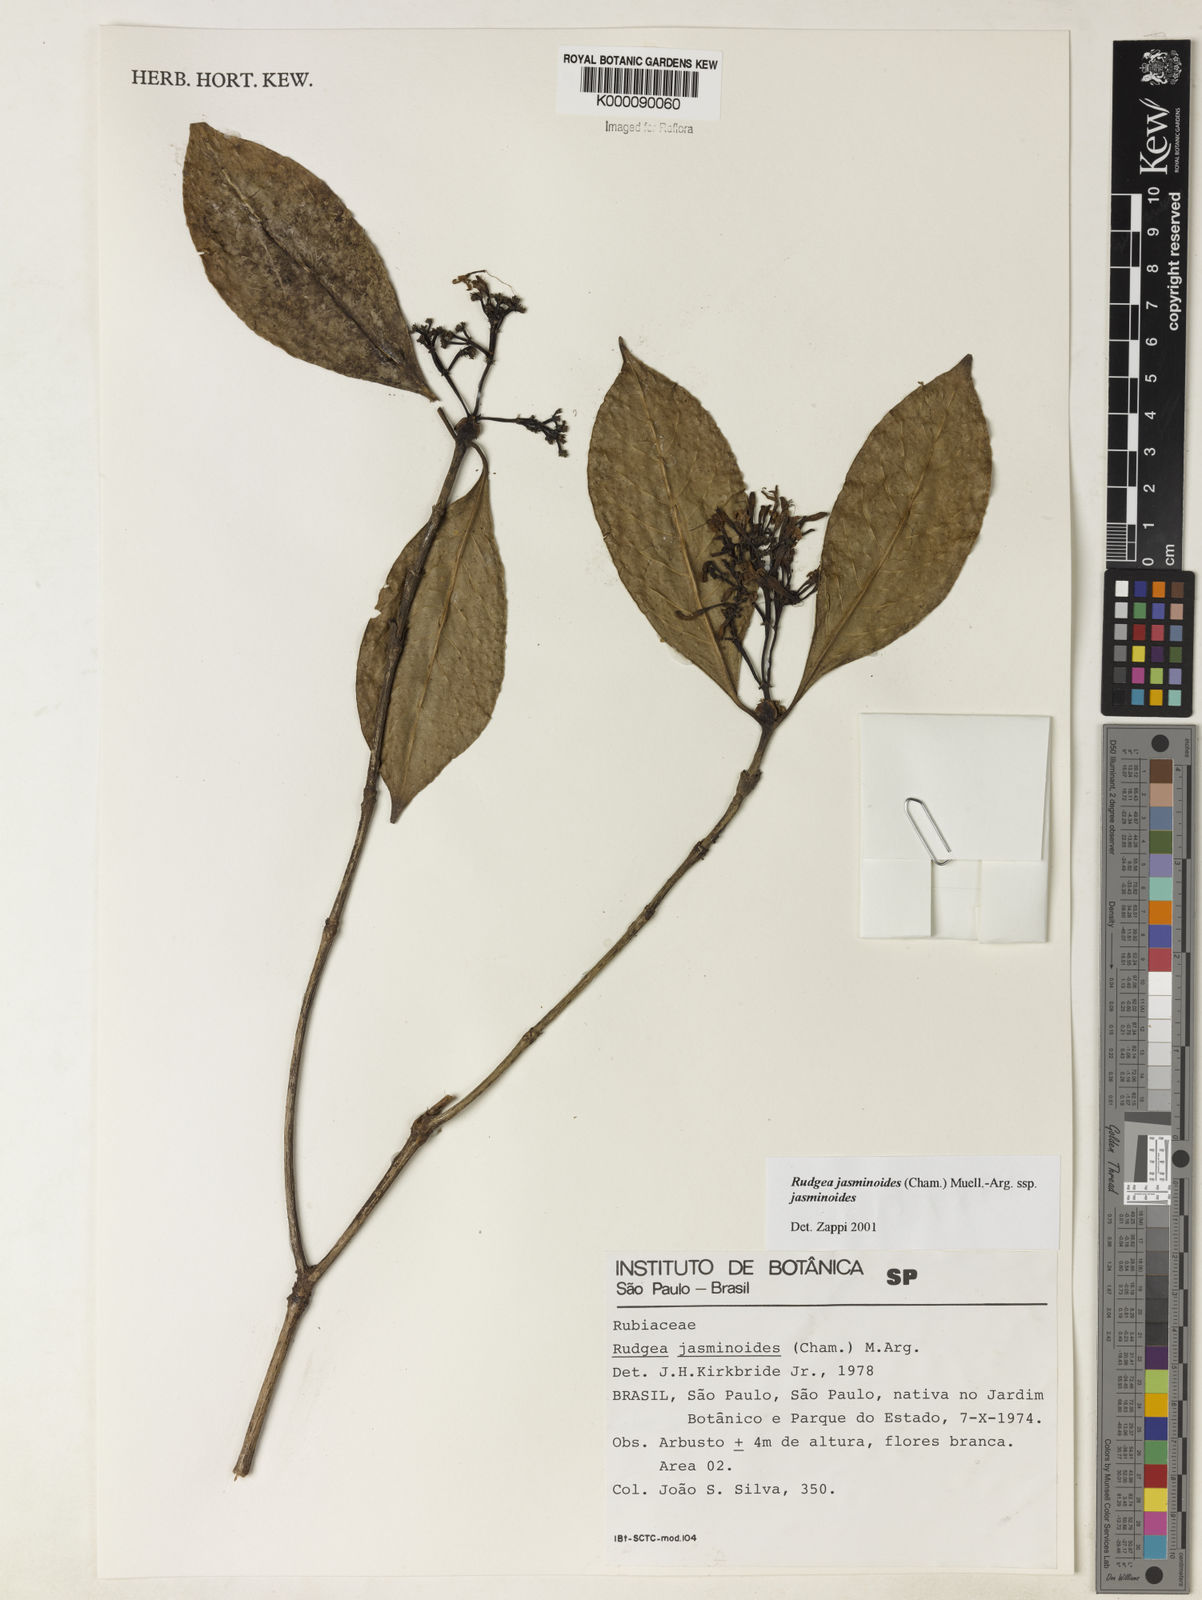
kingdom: Plantae
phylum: Tracheophyta
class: Magnoliopsida
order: Gentianales
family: Rubiaceae
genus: Rudgea
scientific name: Rudgea jasminoides
